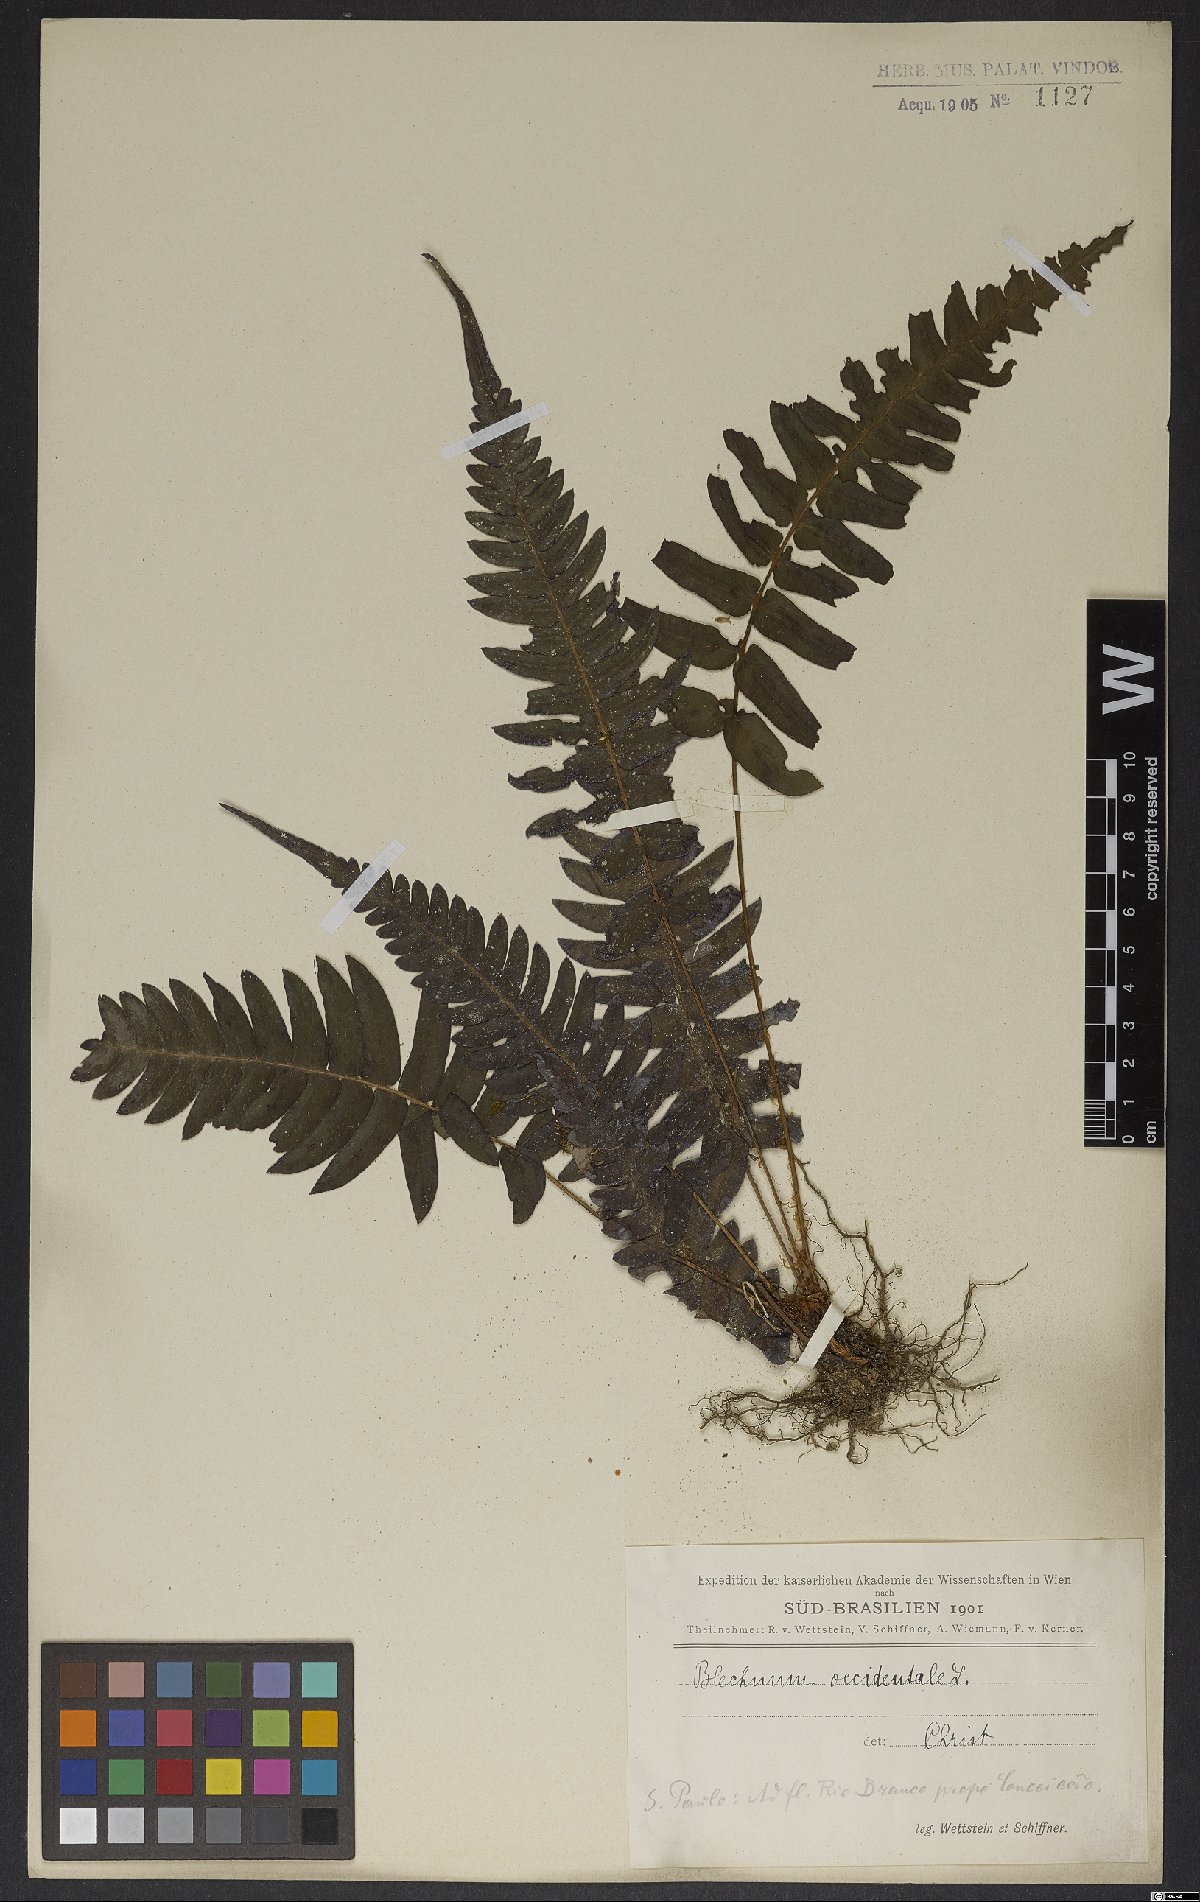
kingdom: Plantae
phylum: Tracheophyta
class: Polypodiopsida
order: Polypodiales
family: Blechnaceae
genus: Blechnum
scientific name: Blechnum occidentale
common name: Hammock fern
